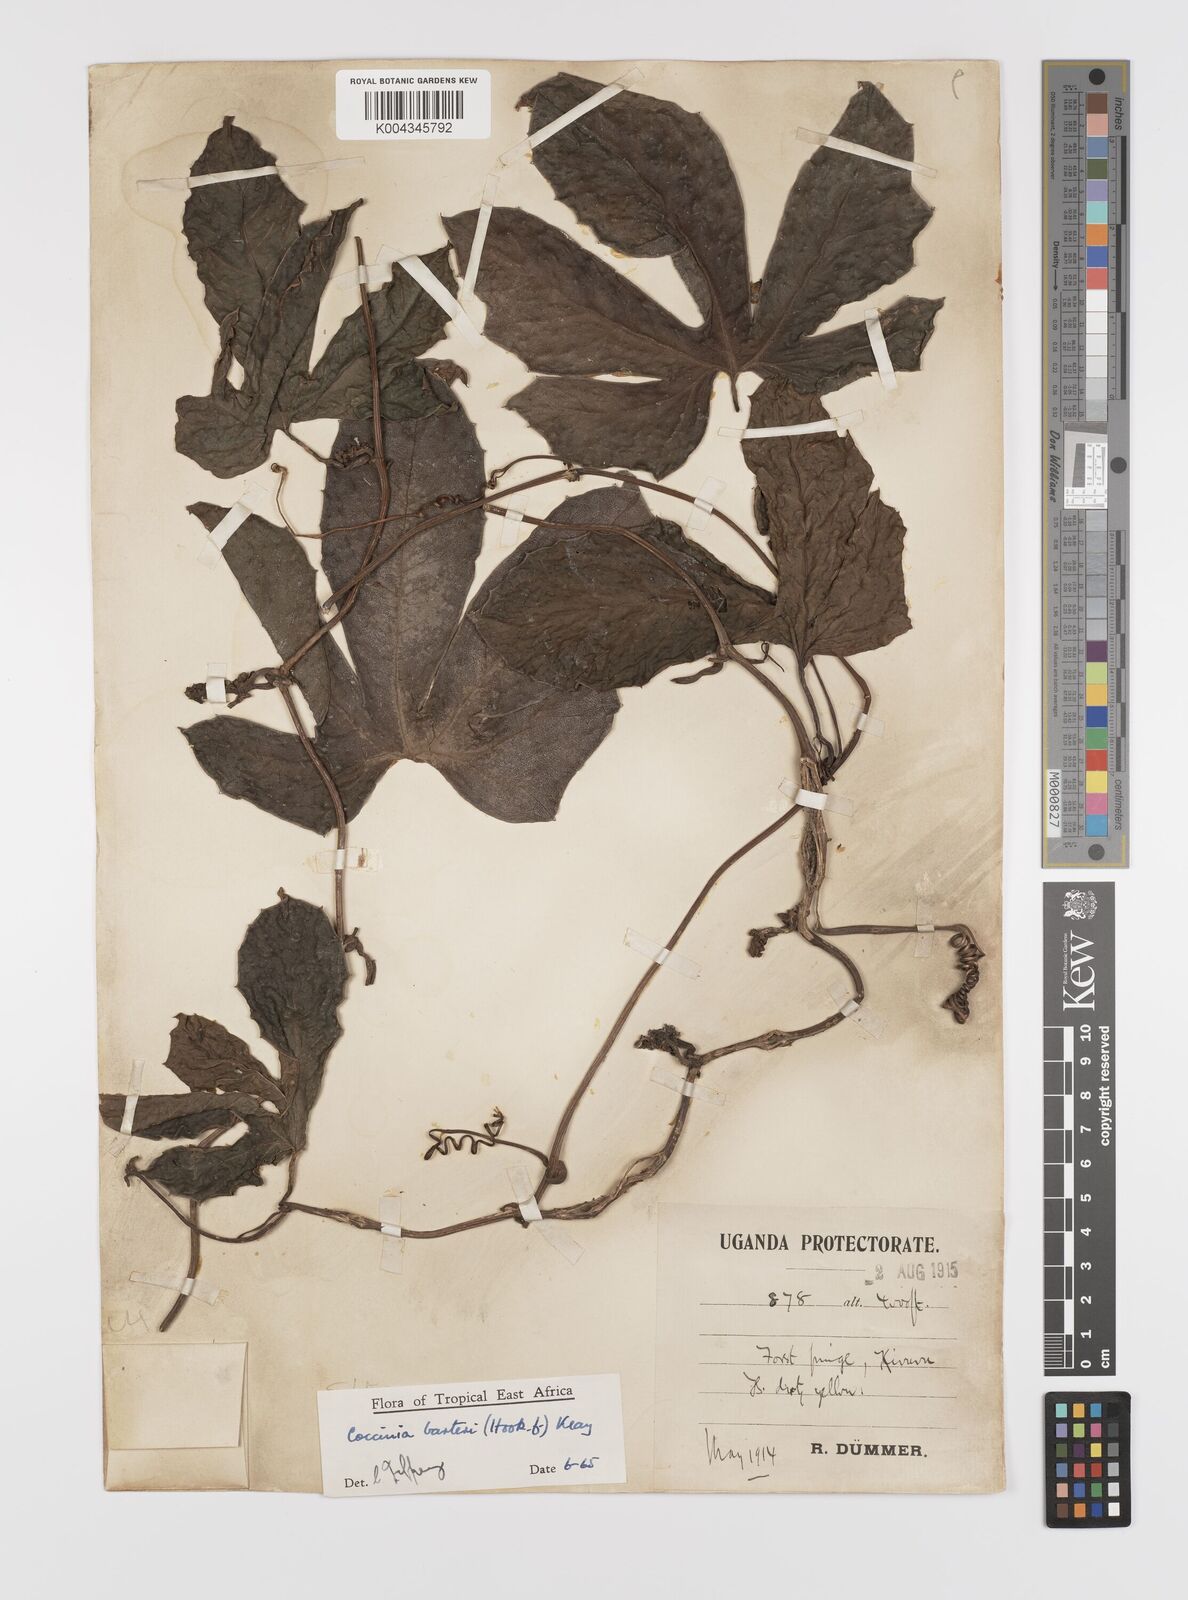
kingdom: Plantae
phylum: Tracheophyta
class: Magnoliopsida
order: Cucurbitales
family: Cucurbitaceae
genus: Coccinia
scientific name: Coccinia barteri
